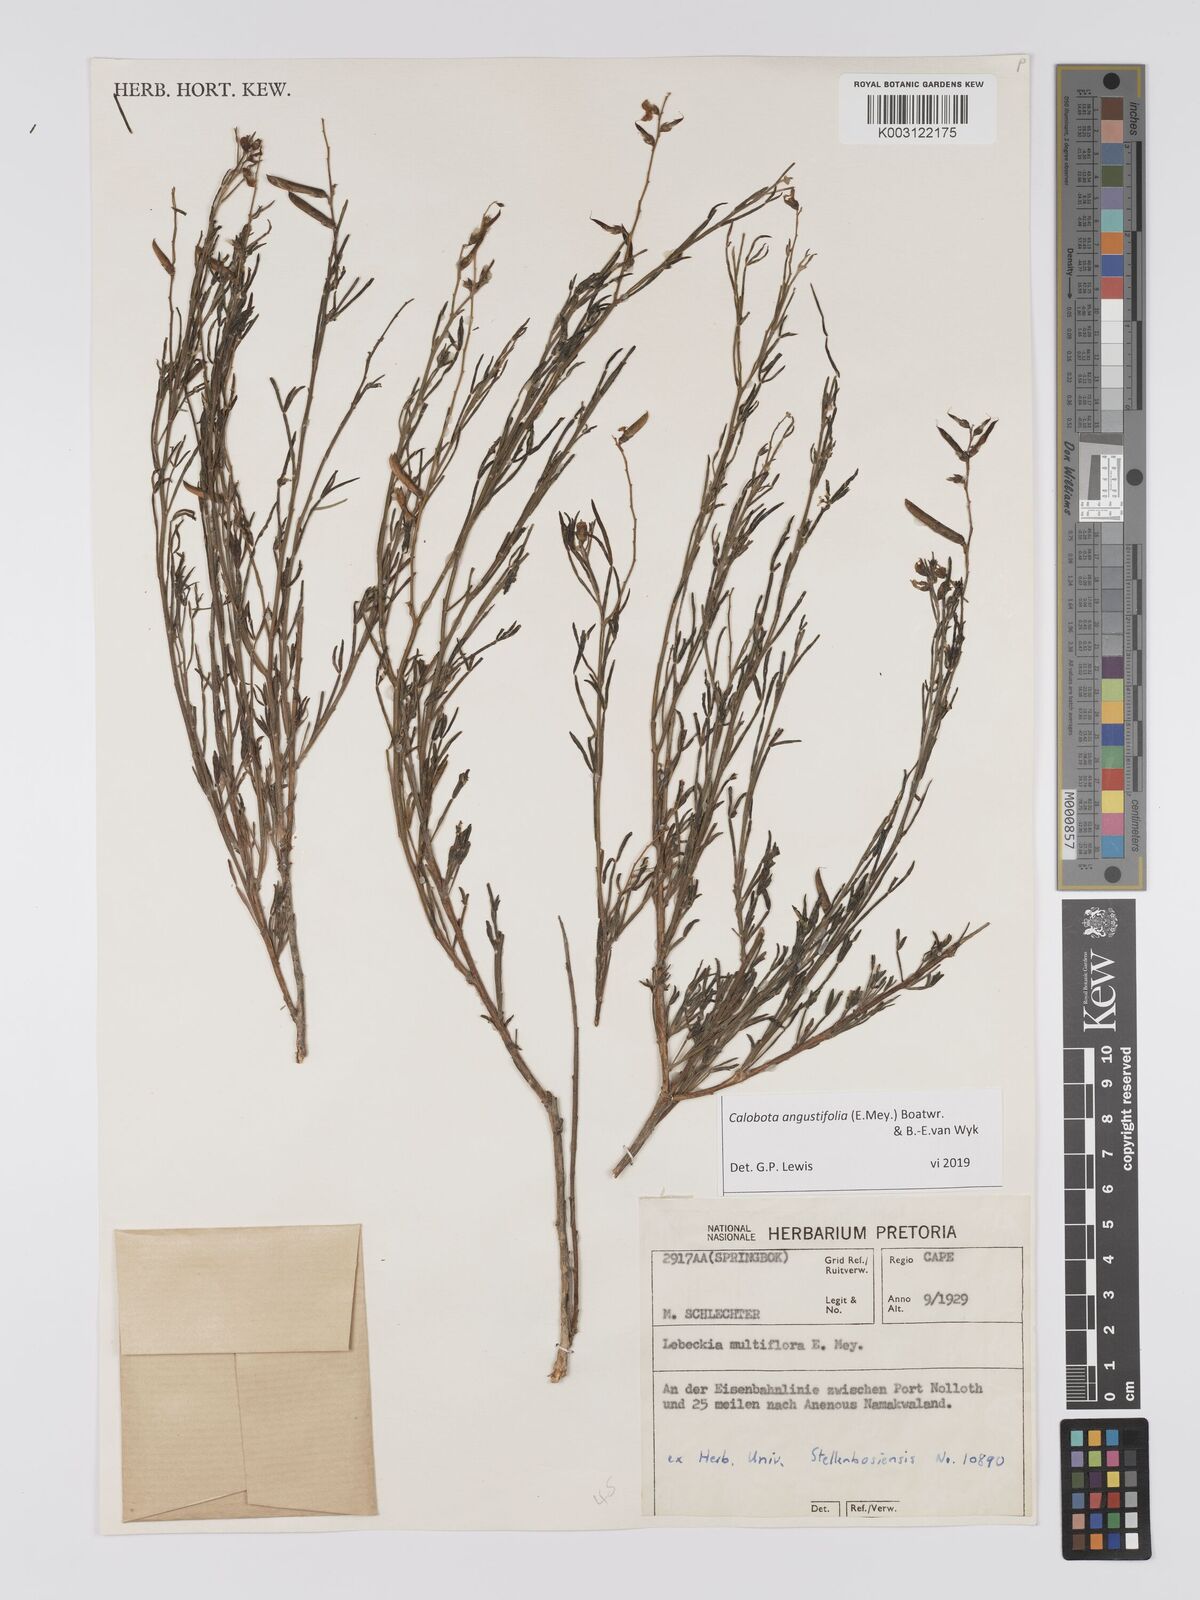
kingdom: Plantae
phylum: Tracheophyta
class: Magnoliopsida
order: Fabales
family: Fabaceae
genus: Calobota
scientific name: Calobota angustifolia
